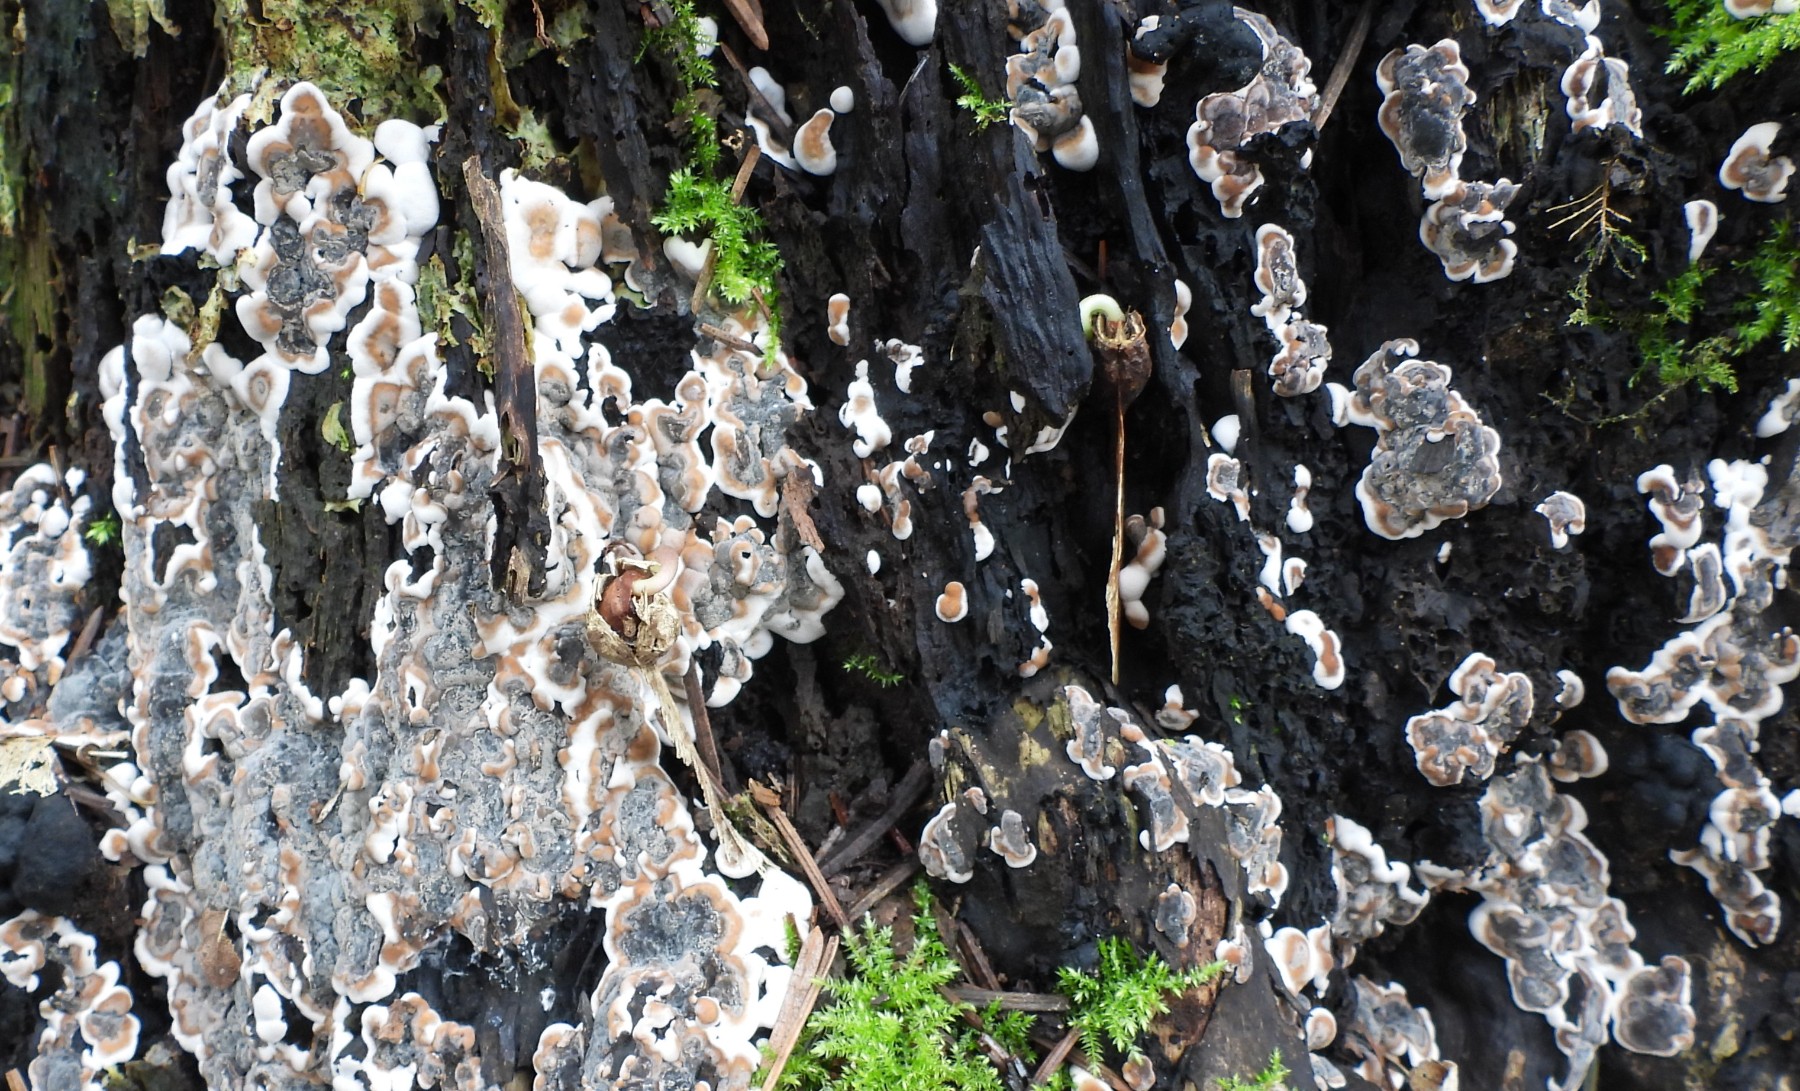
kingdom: Fungi
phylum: Ascomycota
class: Sordariomycetes
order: Xylariales
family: Xylariaceae
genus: Kretzschmaria
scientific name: Kretzschmaria deusta
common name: stor kulsvamp
